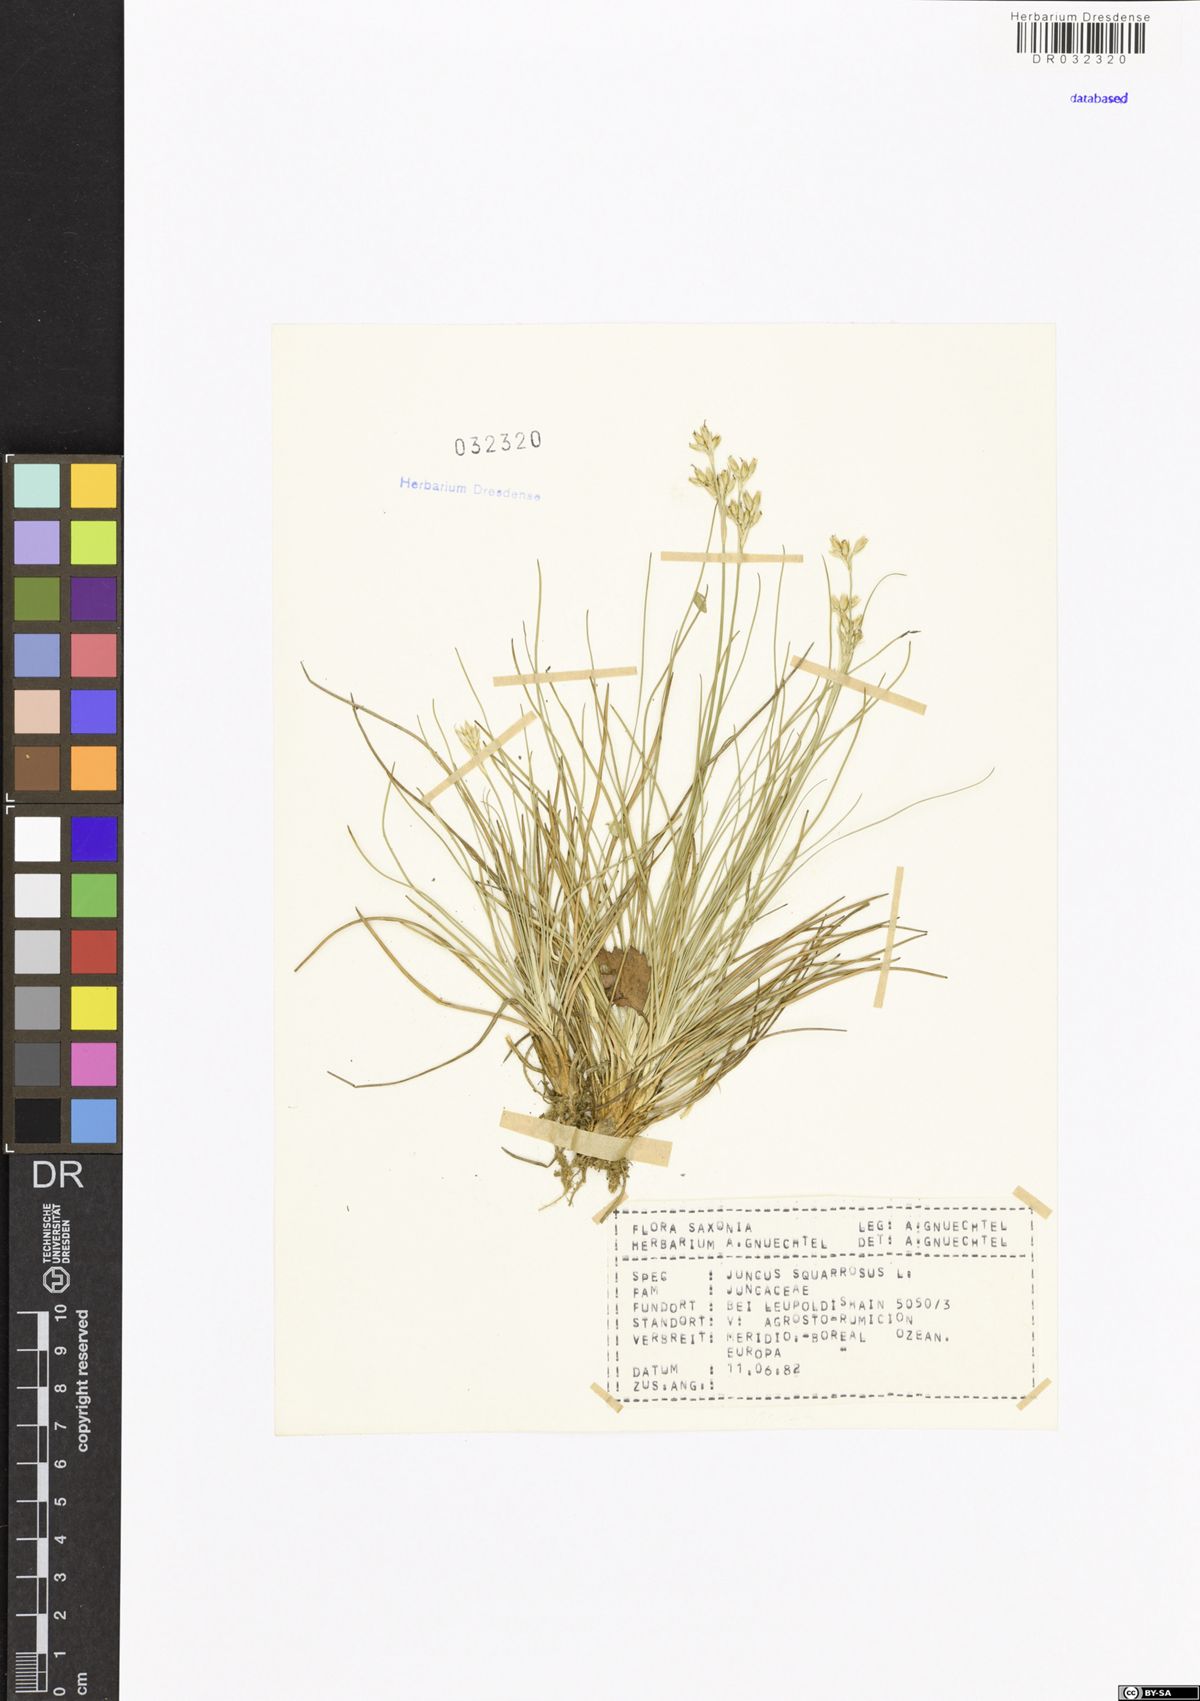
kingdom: Plantae
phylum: Tracheophyta
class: Liliopsida
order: Poales
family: Juncaceae
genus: Juncus
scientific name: Juncus squarrosus
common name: Heath rush
